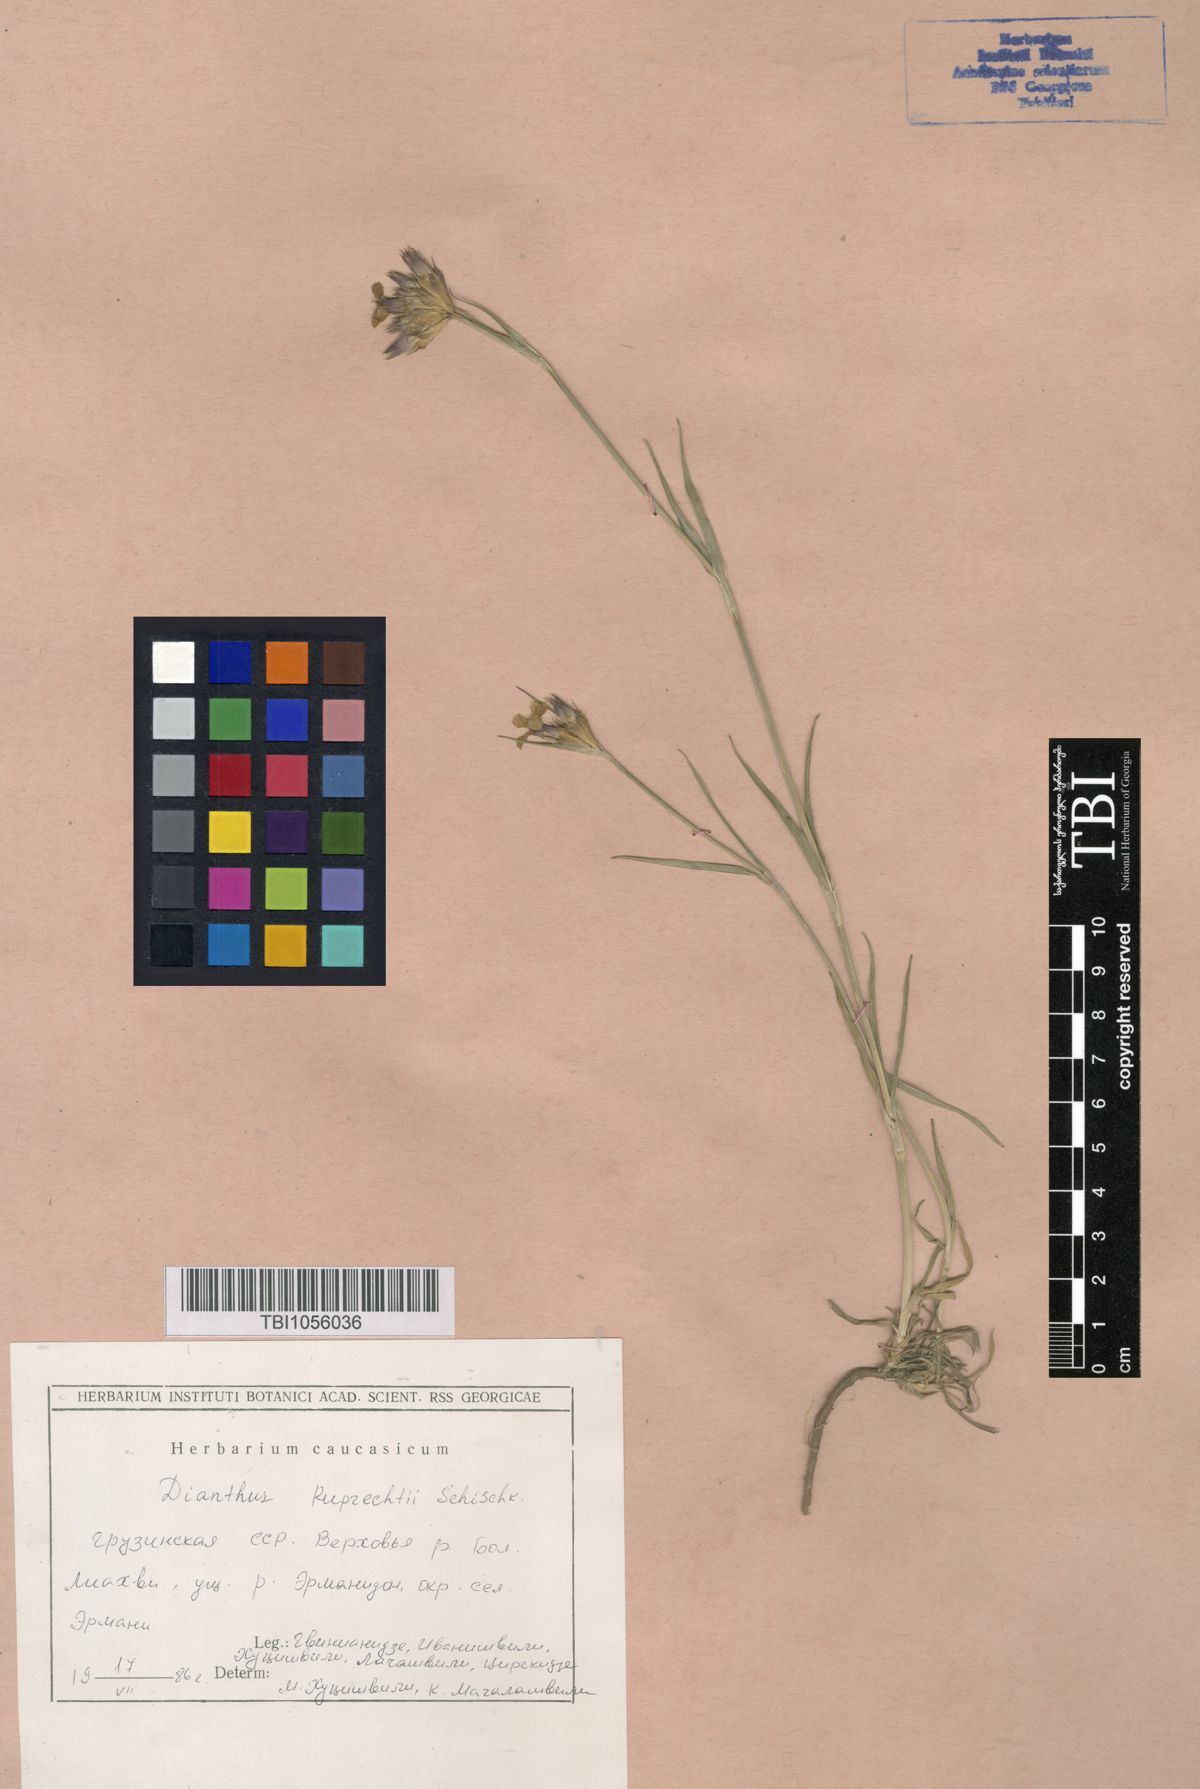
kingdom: Plantae
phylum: Tracheophyta
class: Magnoliopsida
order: Caryophyllales
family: Caryophyllaceae
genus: Dianthus
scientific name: Dianthus ruprechtii
